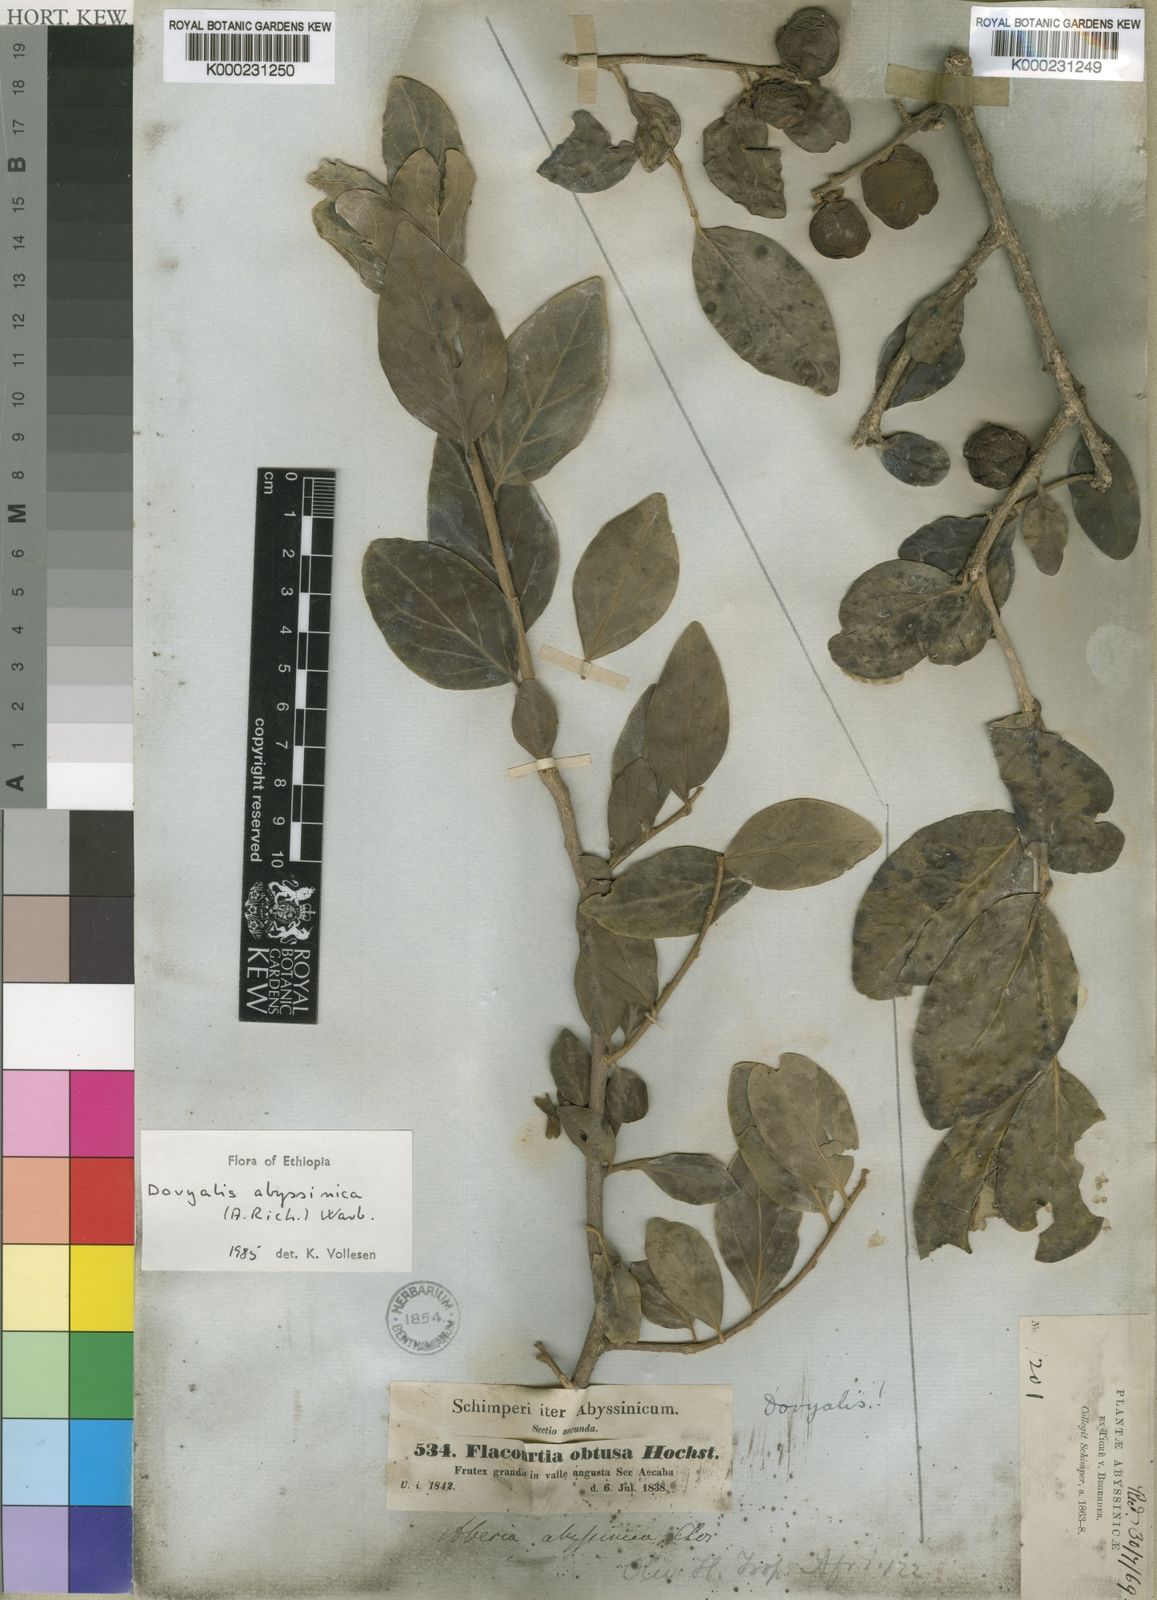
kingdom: Plantae
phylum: Tracheophyta
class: Magnoliopsida
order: Malpighiales
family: Salicaceae
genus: Dovyalis
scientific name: Dovyalis abyssinica
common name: Abyssinian-gooseberry
